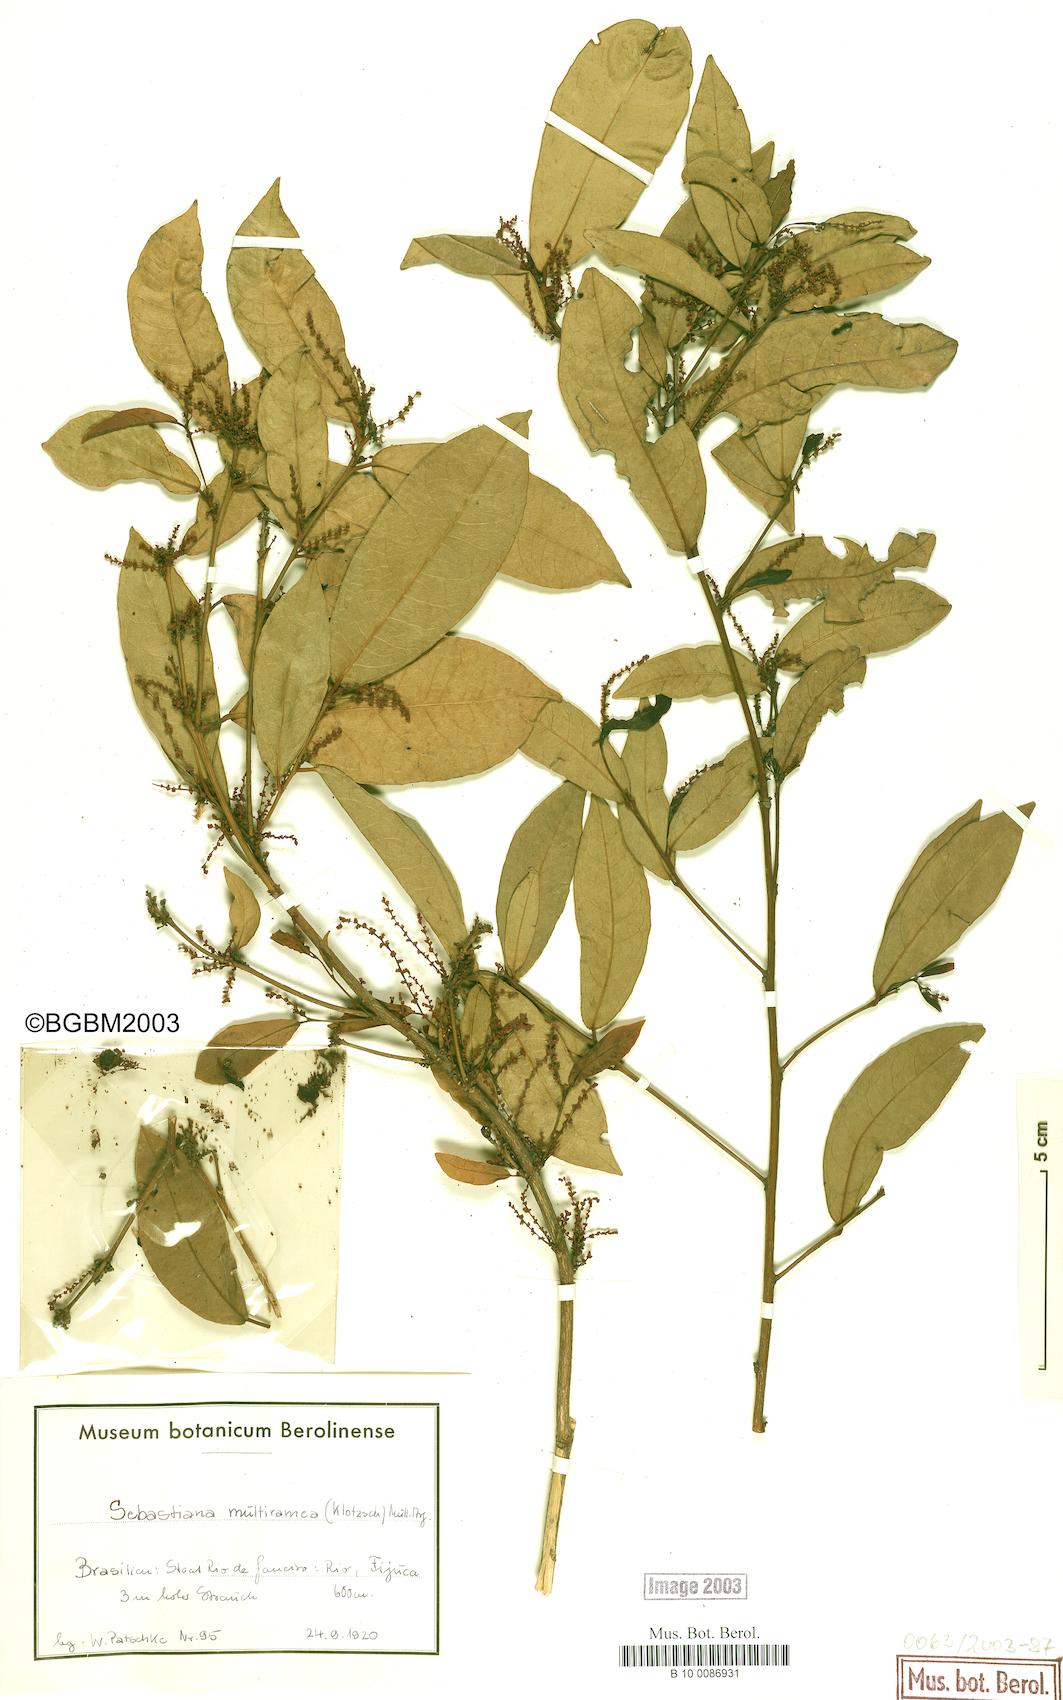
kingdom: Plantae
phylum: Tracheophyta
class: Magnoliopsida
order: Malpighiales
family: Euphorbiaceae
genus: Gymnanthes
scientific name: Gymnanthes glabrata
